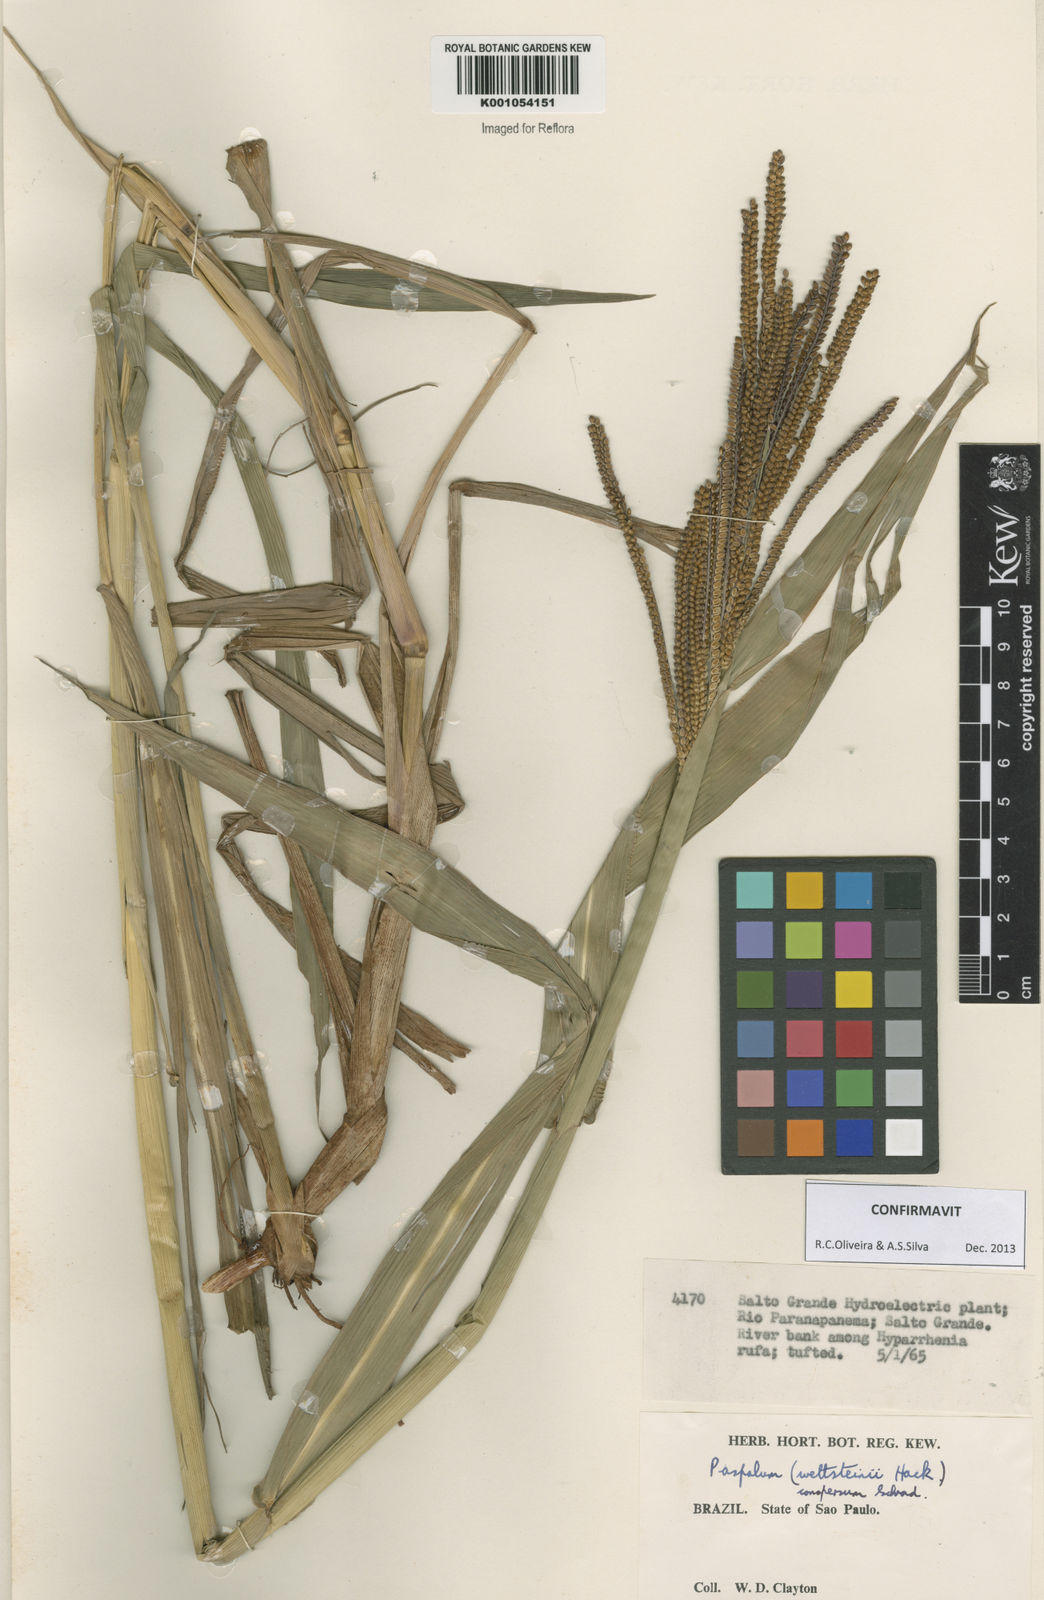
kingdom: Plantae
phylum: Tracheophyta
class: Liliopsida
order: Poales
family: Poaceae
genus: Paspalum
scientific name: Paspalum conspersum
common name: Scattered paspalum
